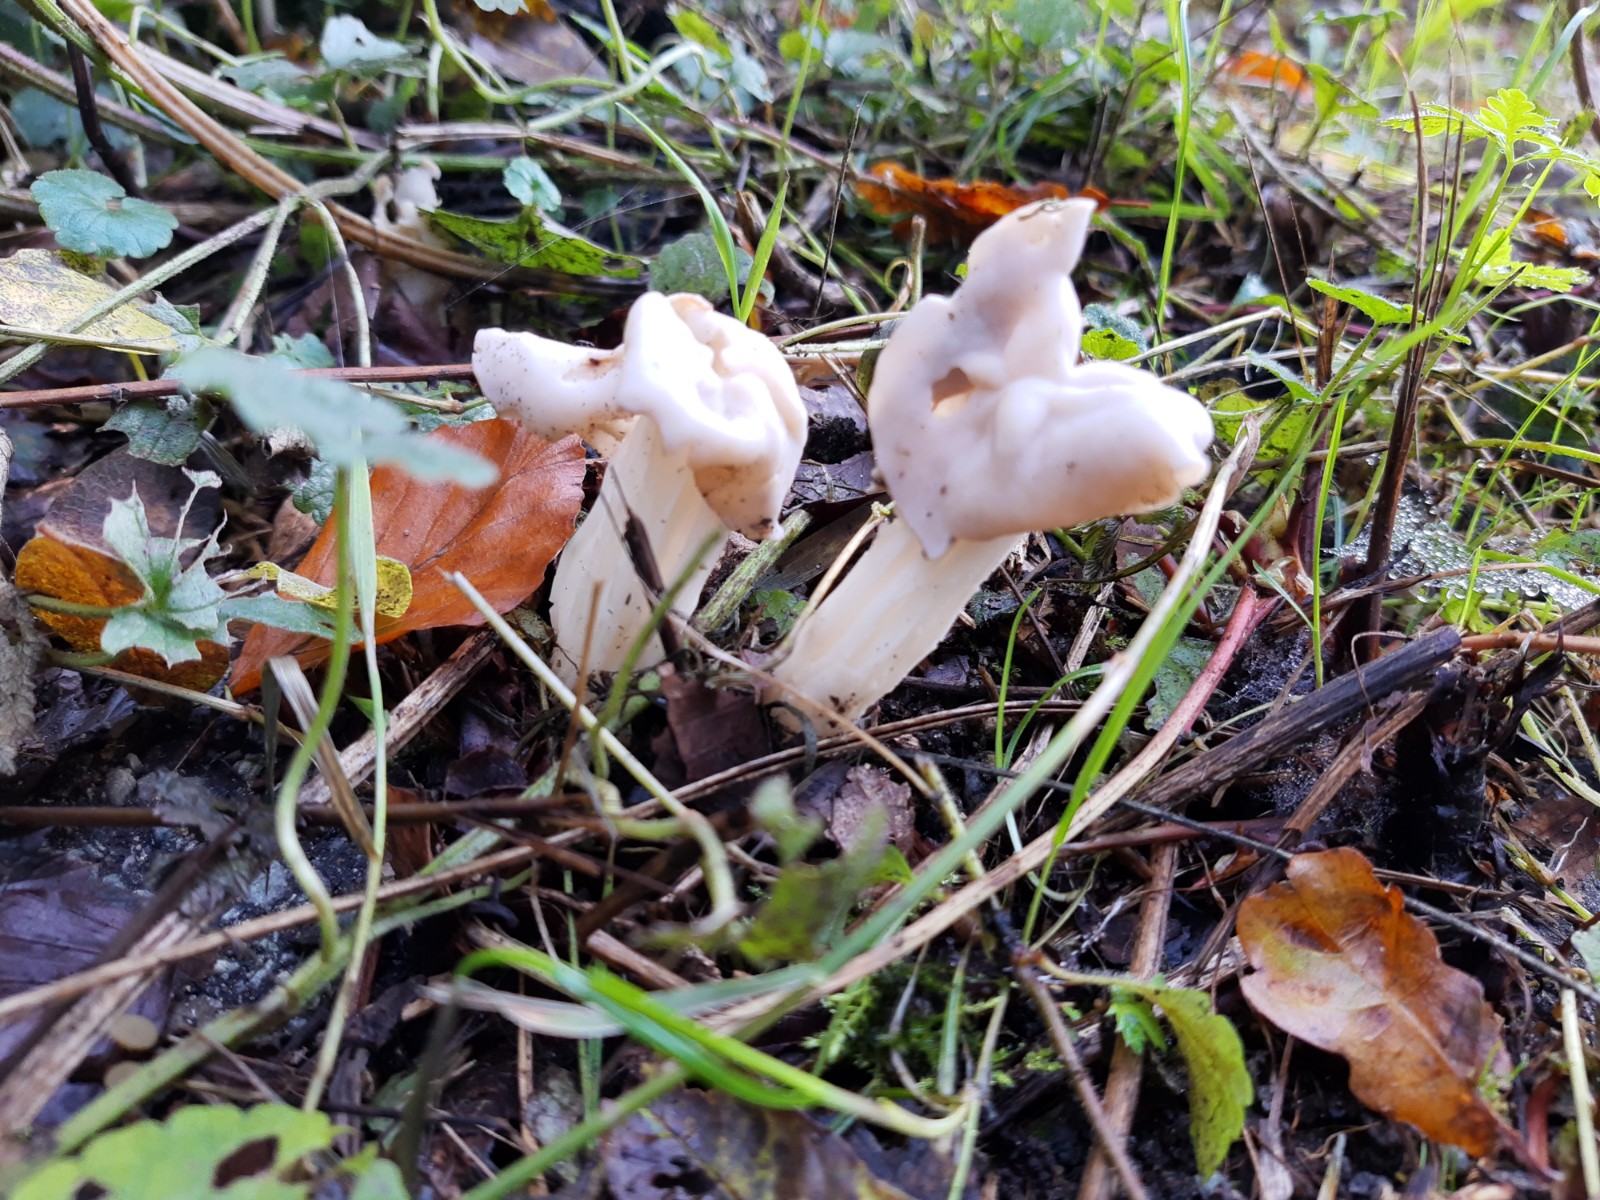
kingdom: Fungi
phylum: Ascomycota
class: Pezizomycetes
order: Pezizales
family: Helvellaceae
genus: Helvella
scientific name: Helvella crispa
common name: kruset foldhat
